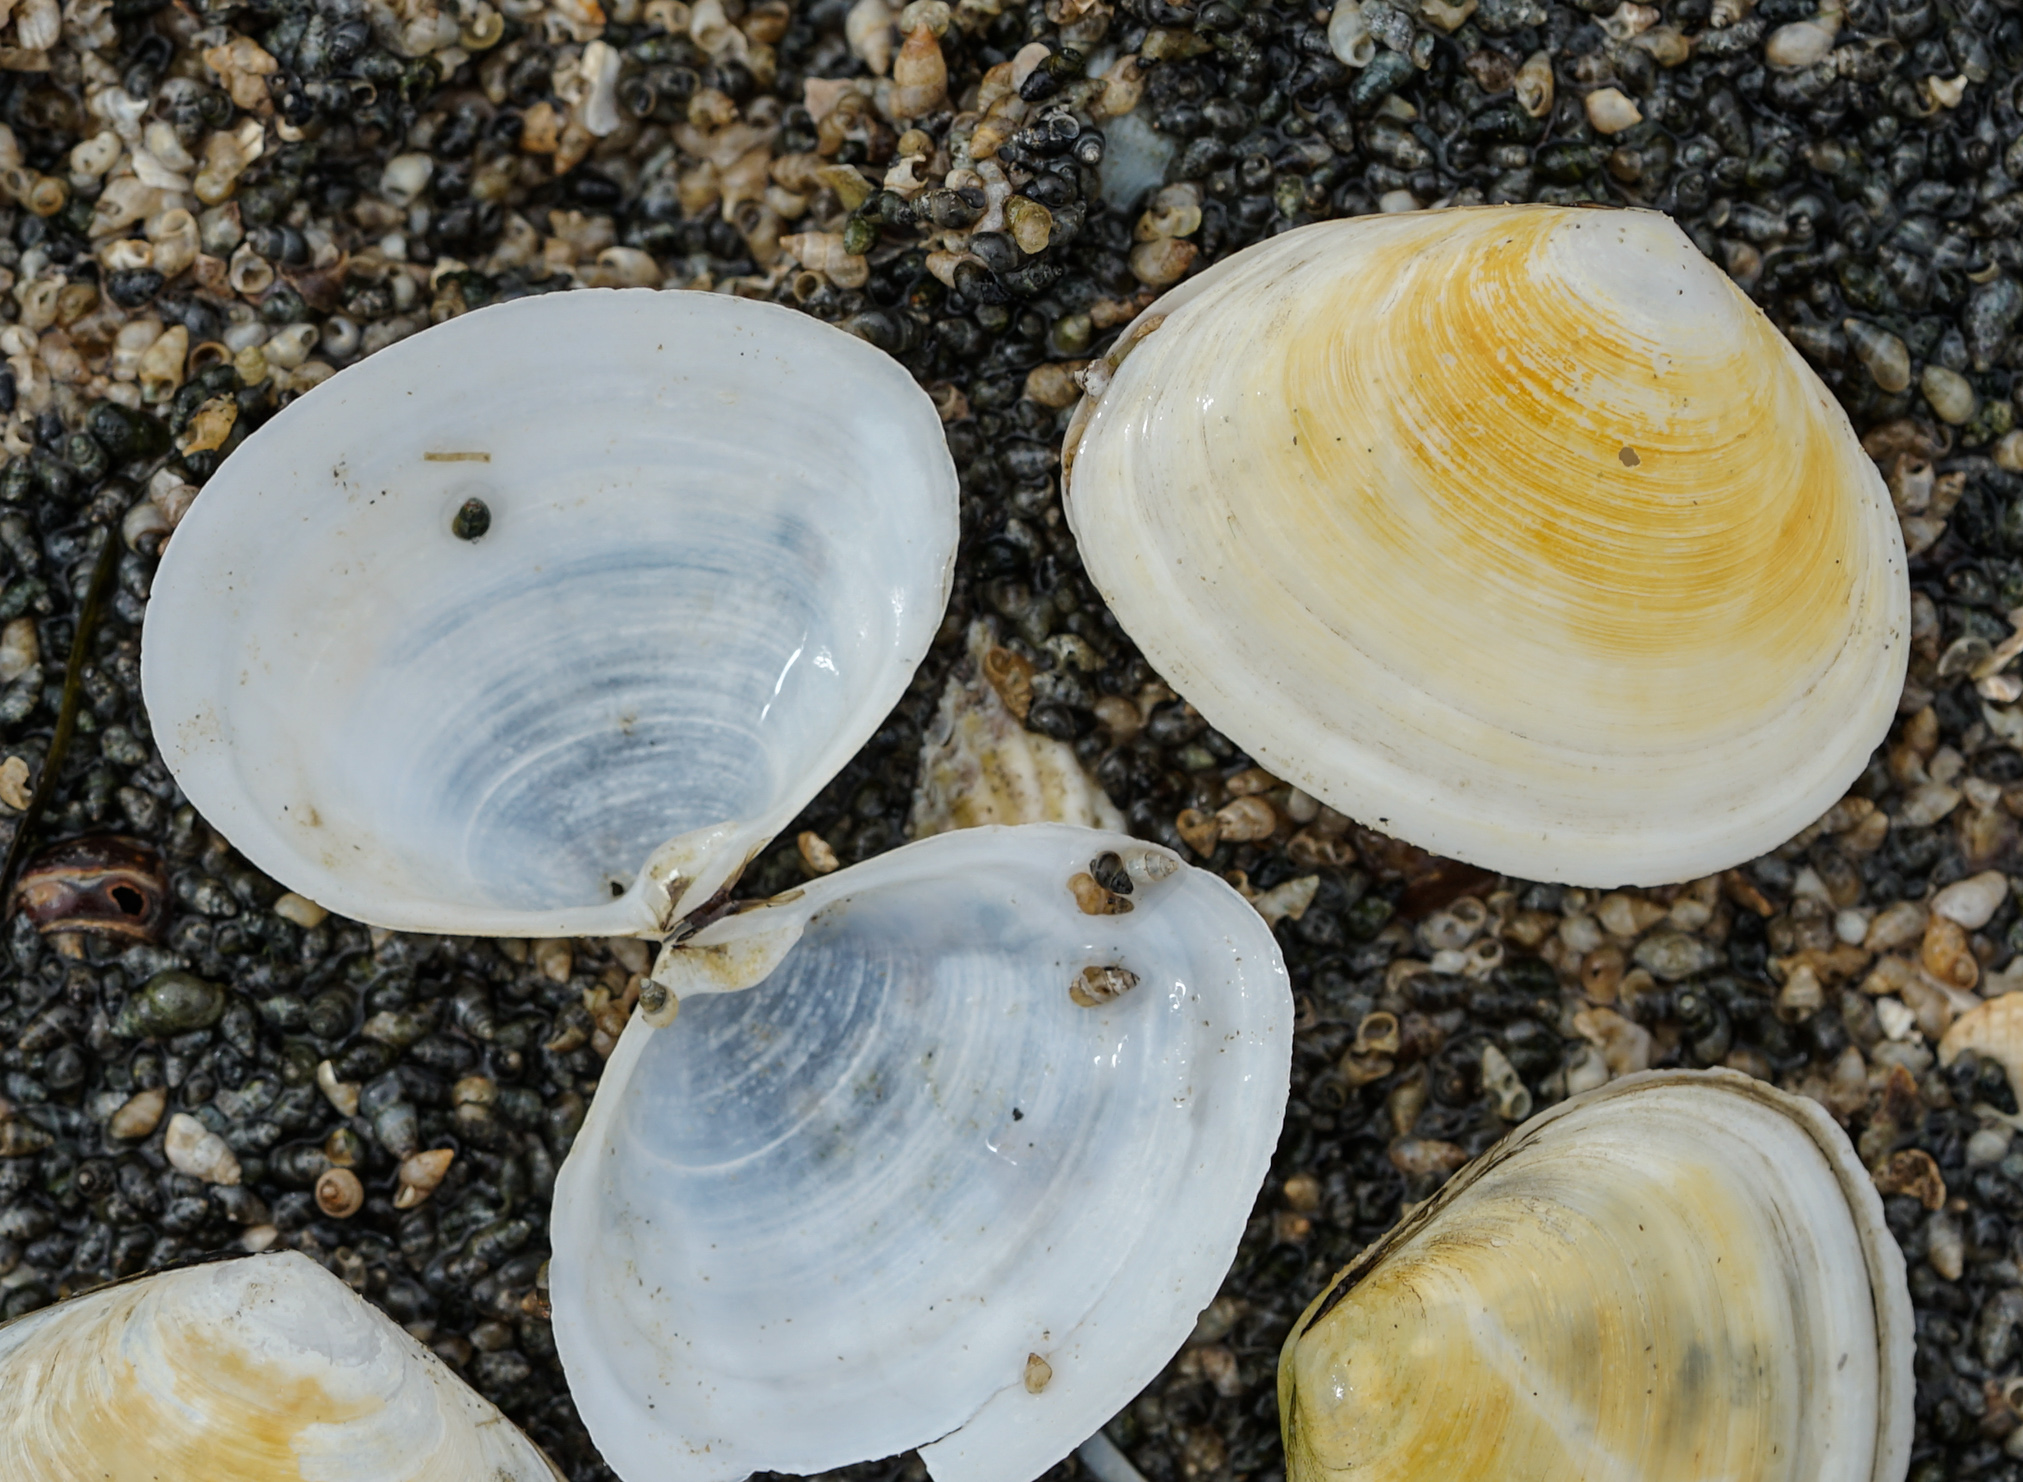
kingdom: Animalia
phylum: Mollusca
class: Bivalvia
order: Cardiida
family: Semelidae
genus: Scrobicularia
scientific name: Scrobicularia plana
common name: Peppery furrow shell
